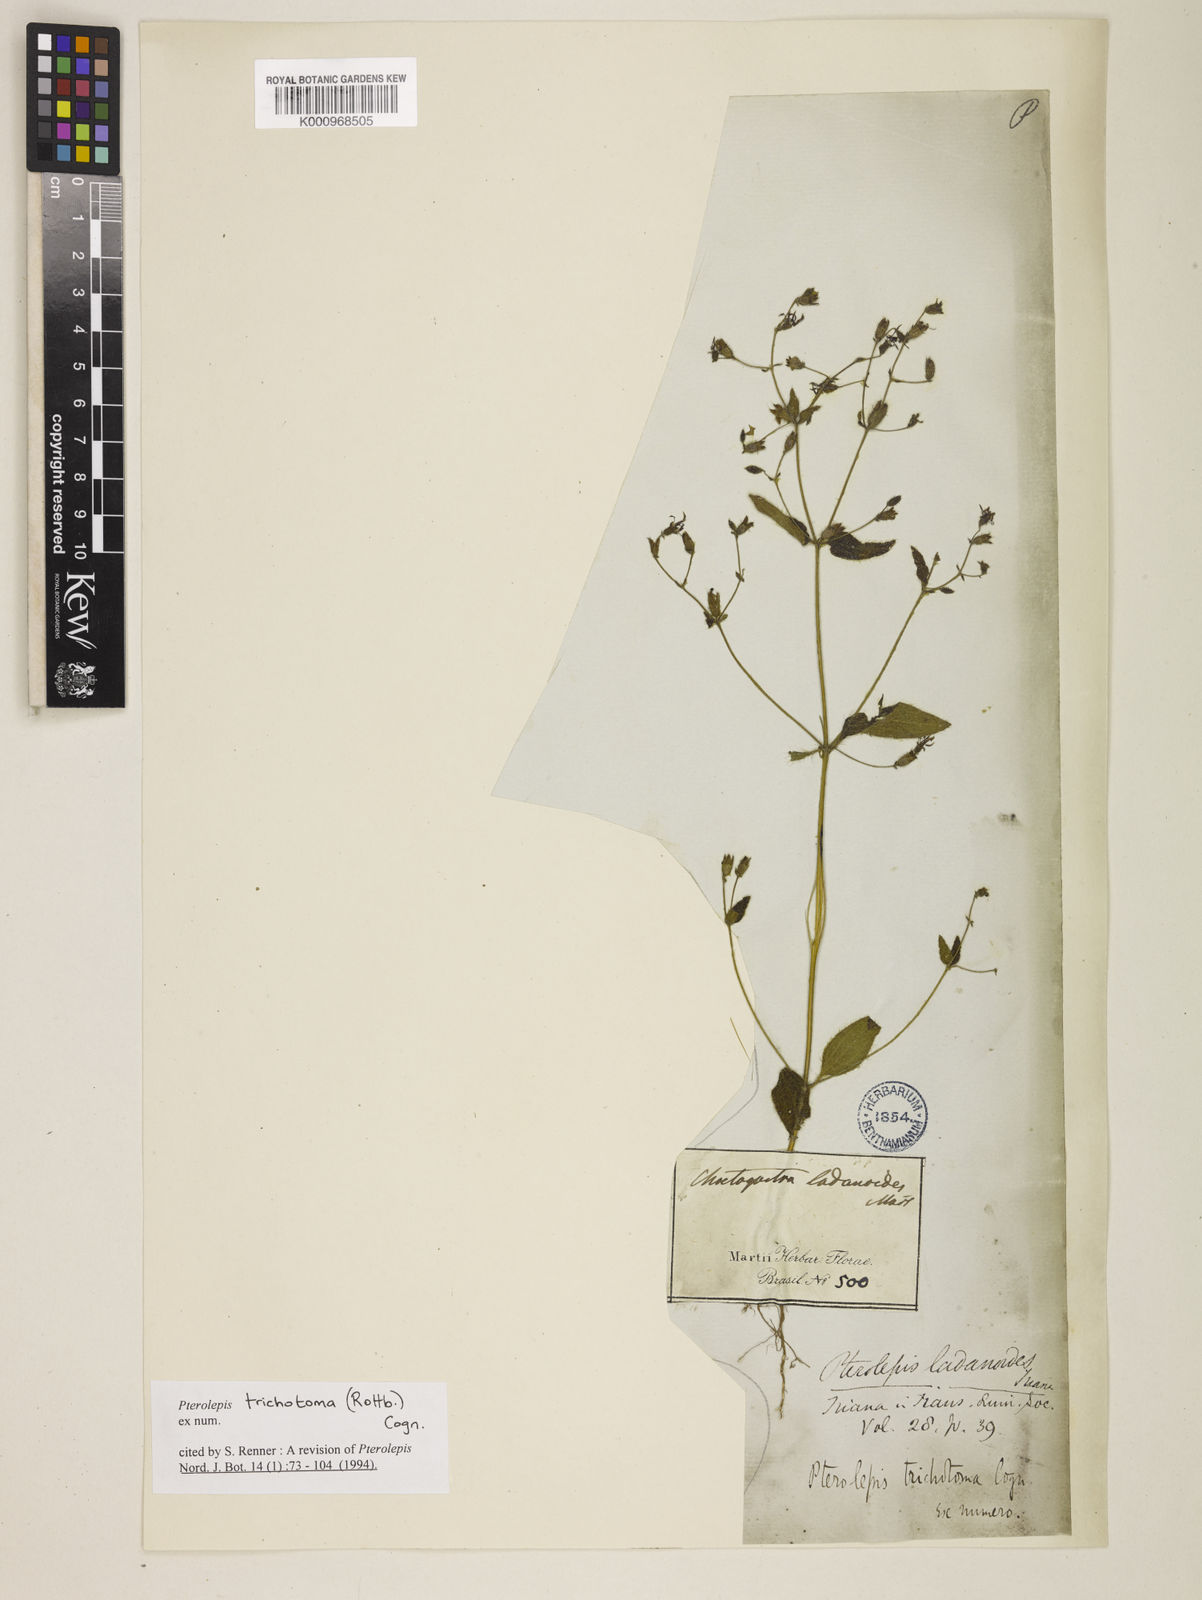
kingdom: Plantae
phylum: Tracheophyta
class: Magnoliopsida
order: Myrtales
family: Melastomataceae
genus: Pterolepis
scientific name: Pterolepis trichotoma
